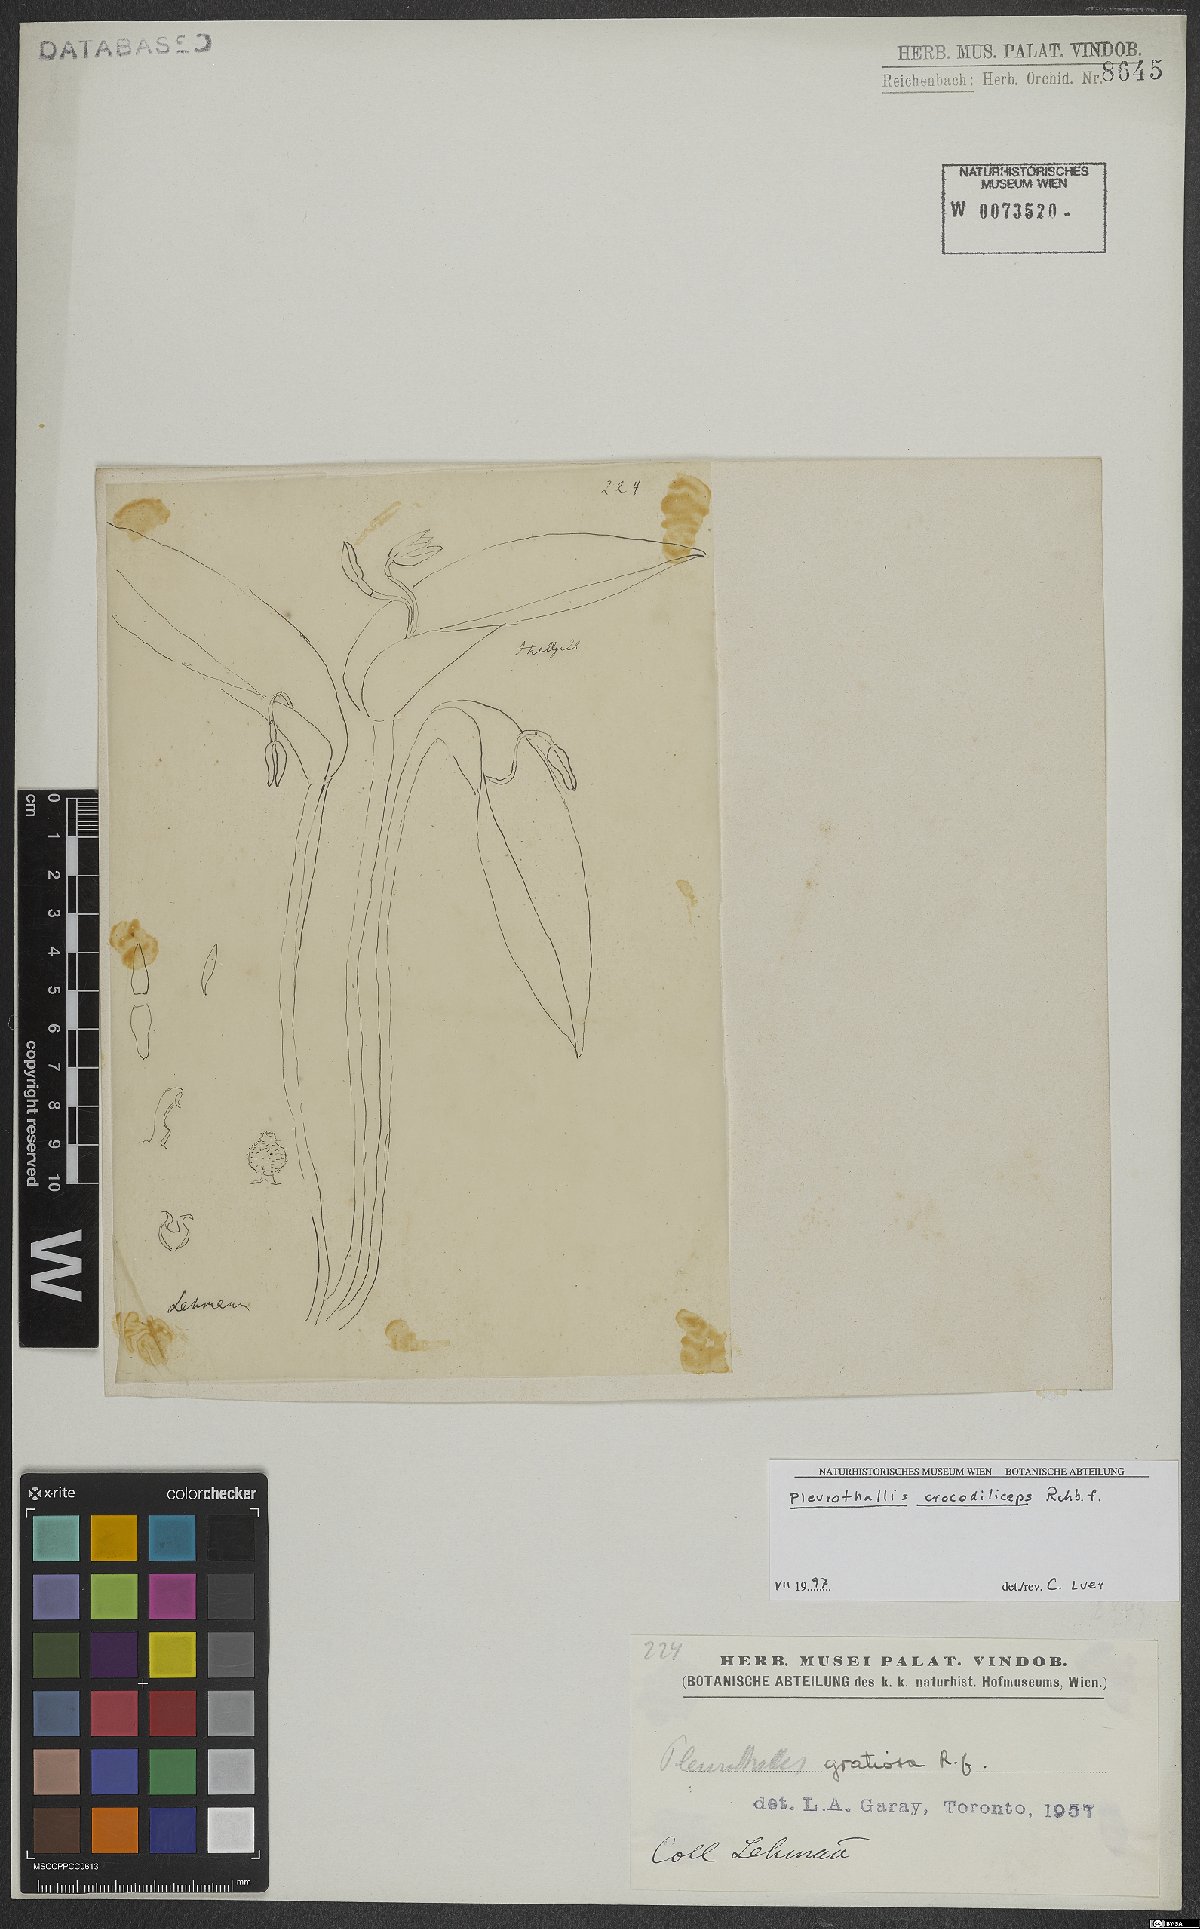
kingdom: Plantae
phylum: Tracheophyta
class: Liliopsida
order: Asparagales
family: Orchidaceae
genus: Pleurothallis
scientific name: Pleurothallis crocodiliceps
